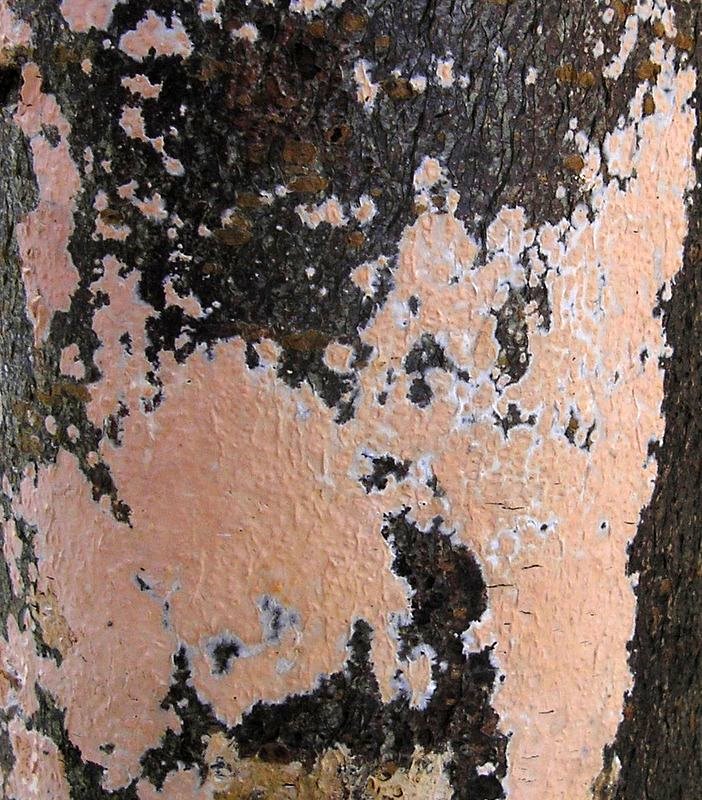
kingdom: Fungi
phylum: Basidiomycota
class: Agaricomycetes
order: Russulales
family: Peniophoraceae
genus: Peniophora
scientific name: Peniophora incarnata
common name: laksefarvet voksskind
